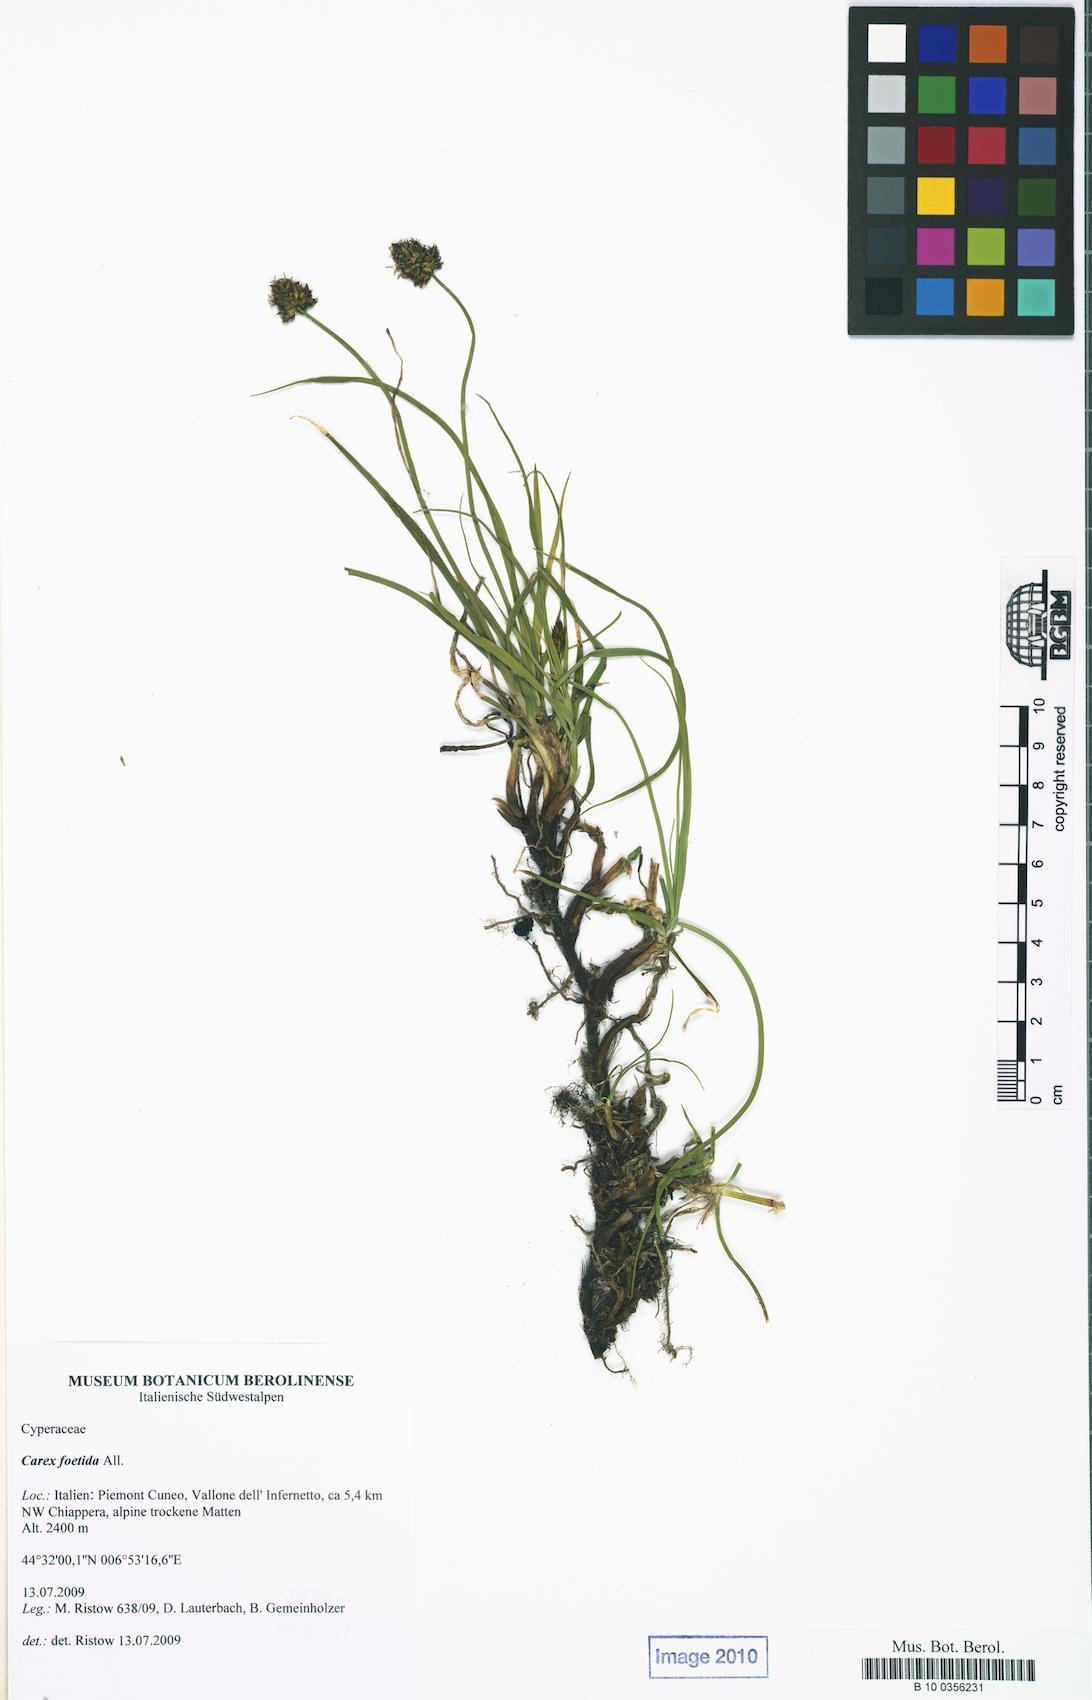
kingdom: Plantae
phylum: Tracheophyta
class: Liliopsida
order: Poales
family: Cyperaceae
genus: Carex
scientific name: Carex foetida
